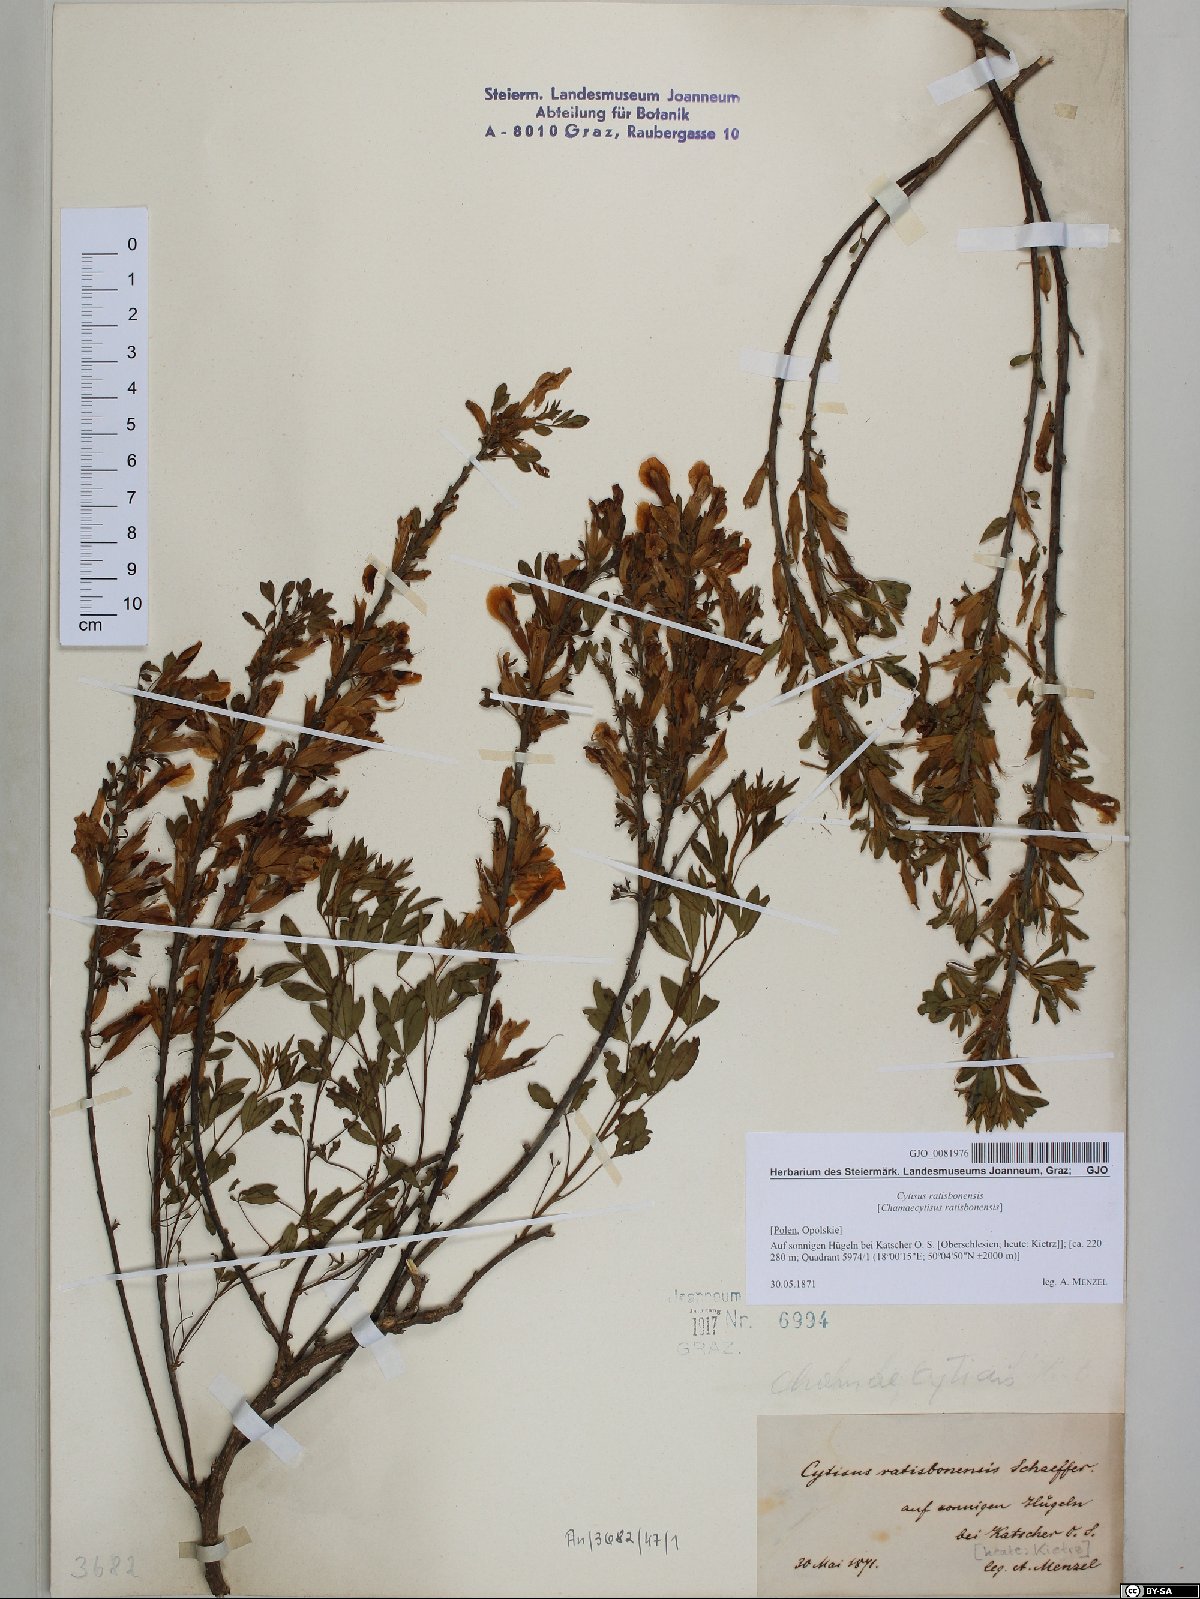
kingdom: Plantae
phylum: Tracheophyta
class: Magnoliopsida
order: Fabales
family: Fabaceae
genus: Chamaecytisus
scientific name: Chamaecytisus ratisbonensis
